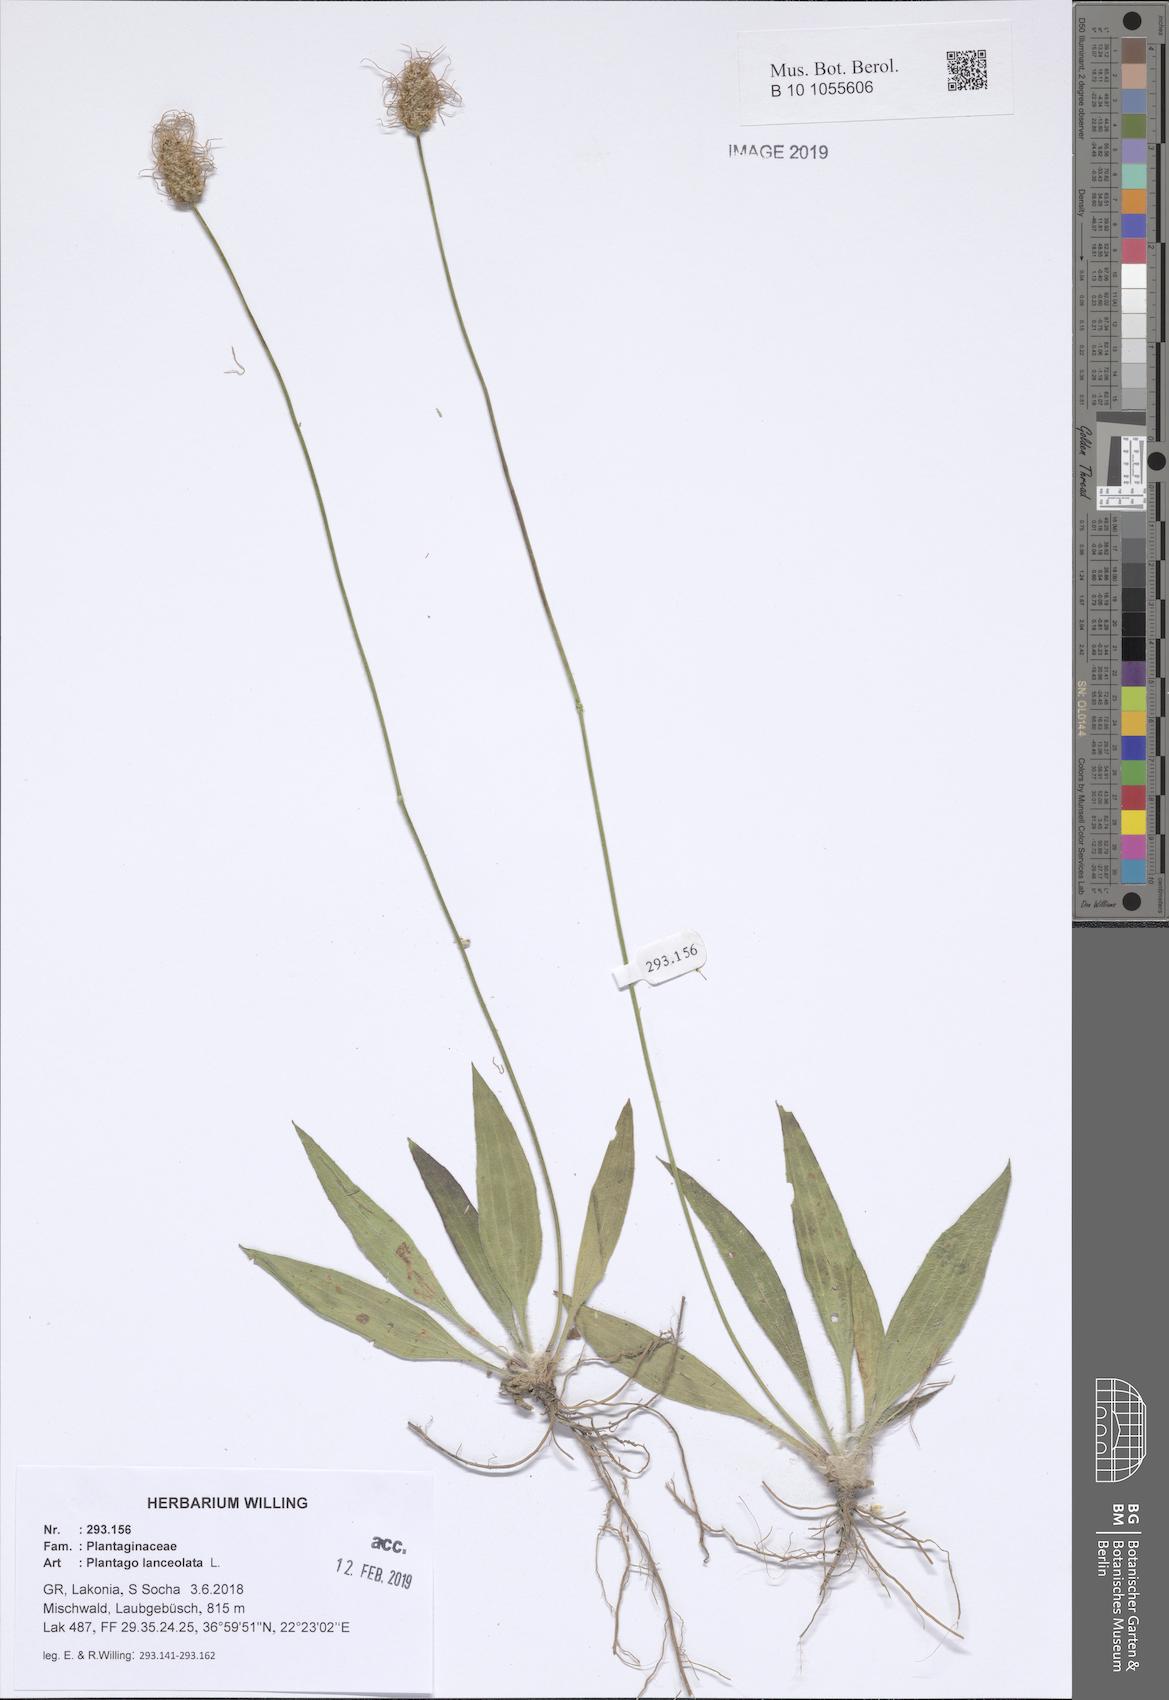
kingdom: Plantae
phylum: Tracheophyta
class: Magnoliopsida
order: Lamiales
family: Plantaginaceae
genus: Plantago
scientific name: Plantago lanceolata
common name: Ribwort plantain
